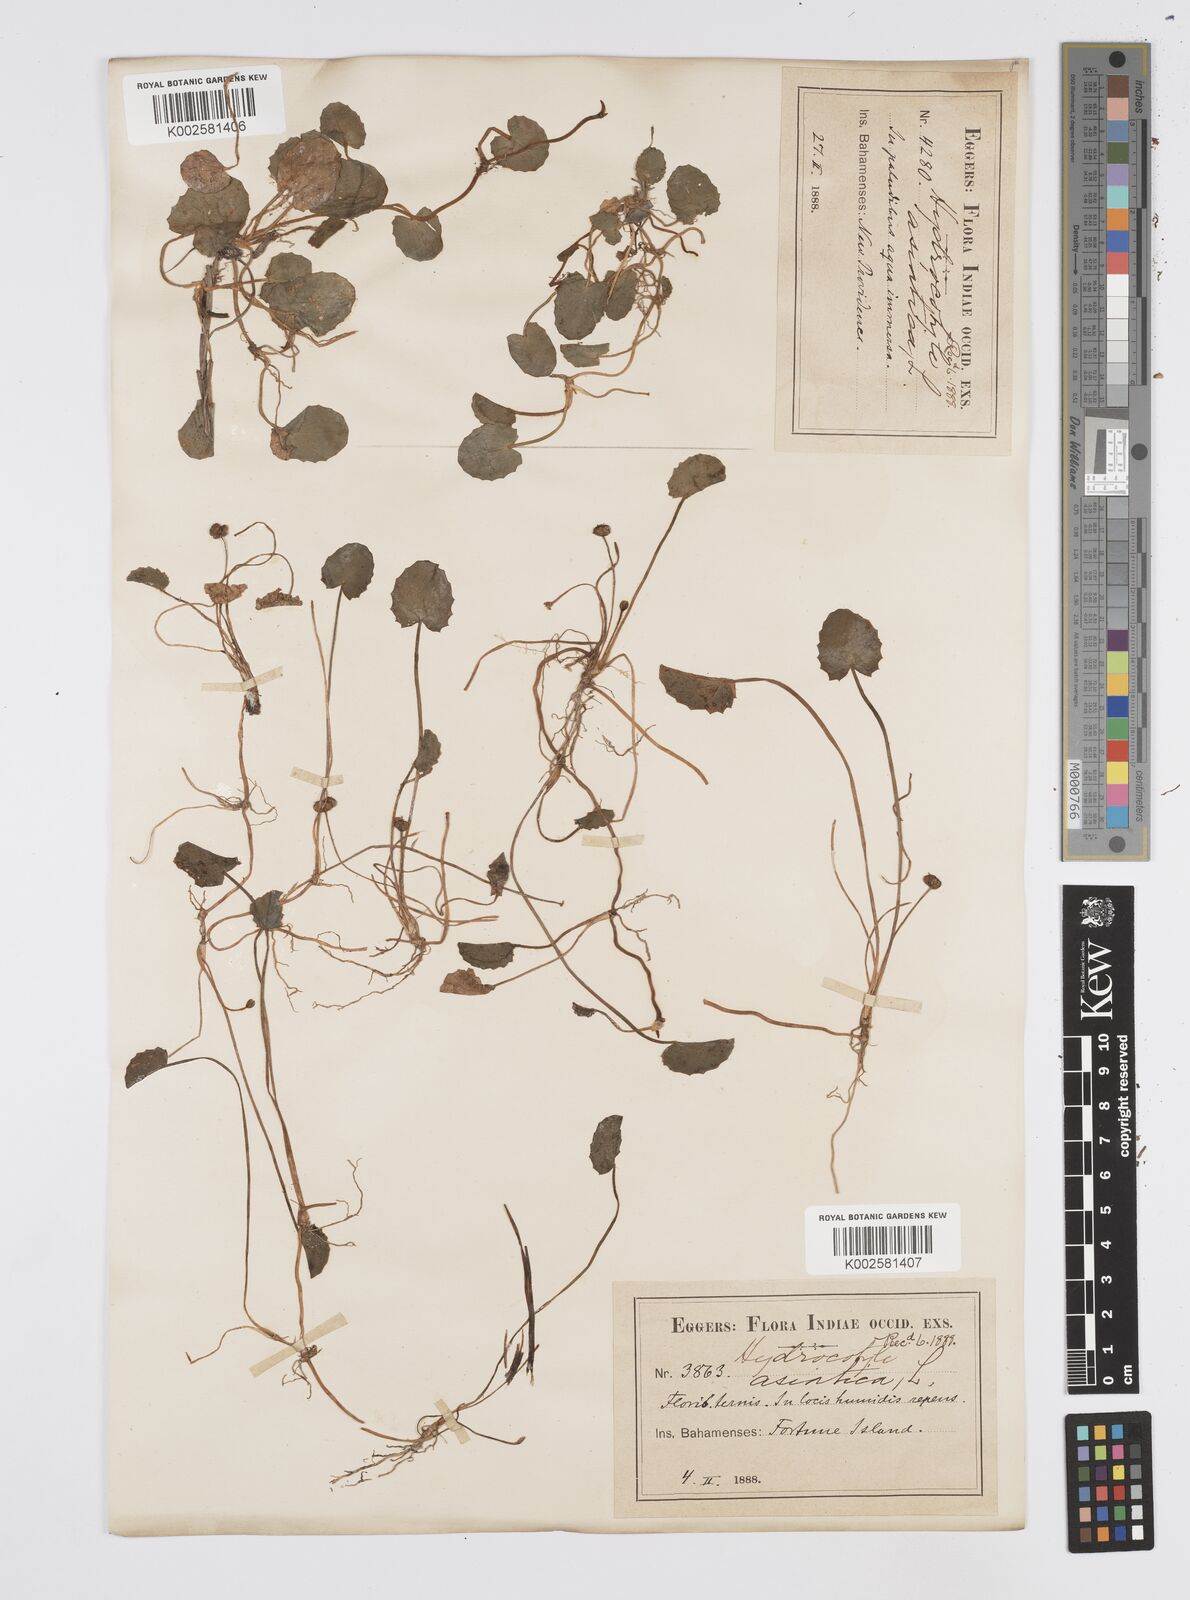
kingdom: Plantae
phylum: Tracheophyta
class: Magnoliopsida
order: Apiales
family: Apiaceae
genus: Centella
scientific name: Centella asiatica
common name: Spadeleaf
